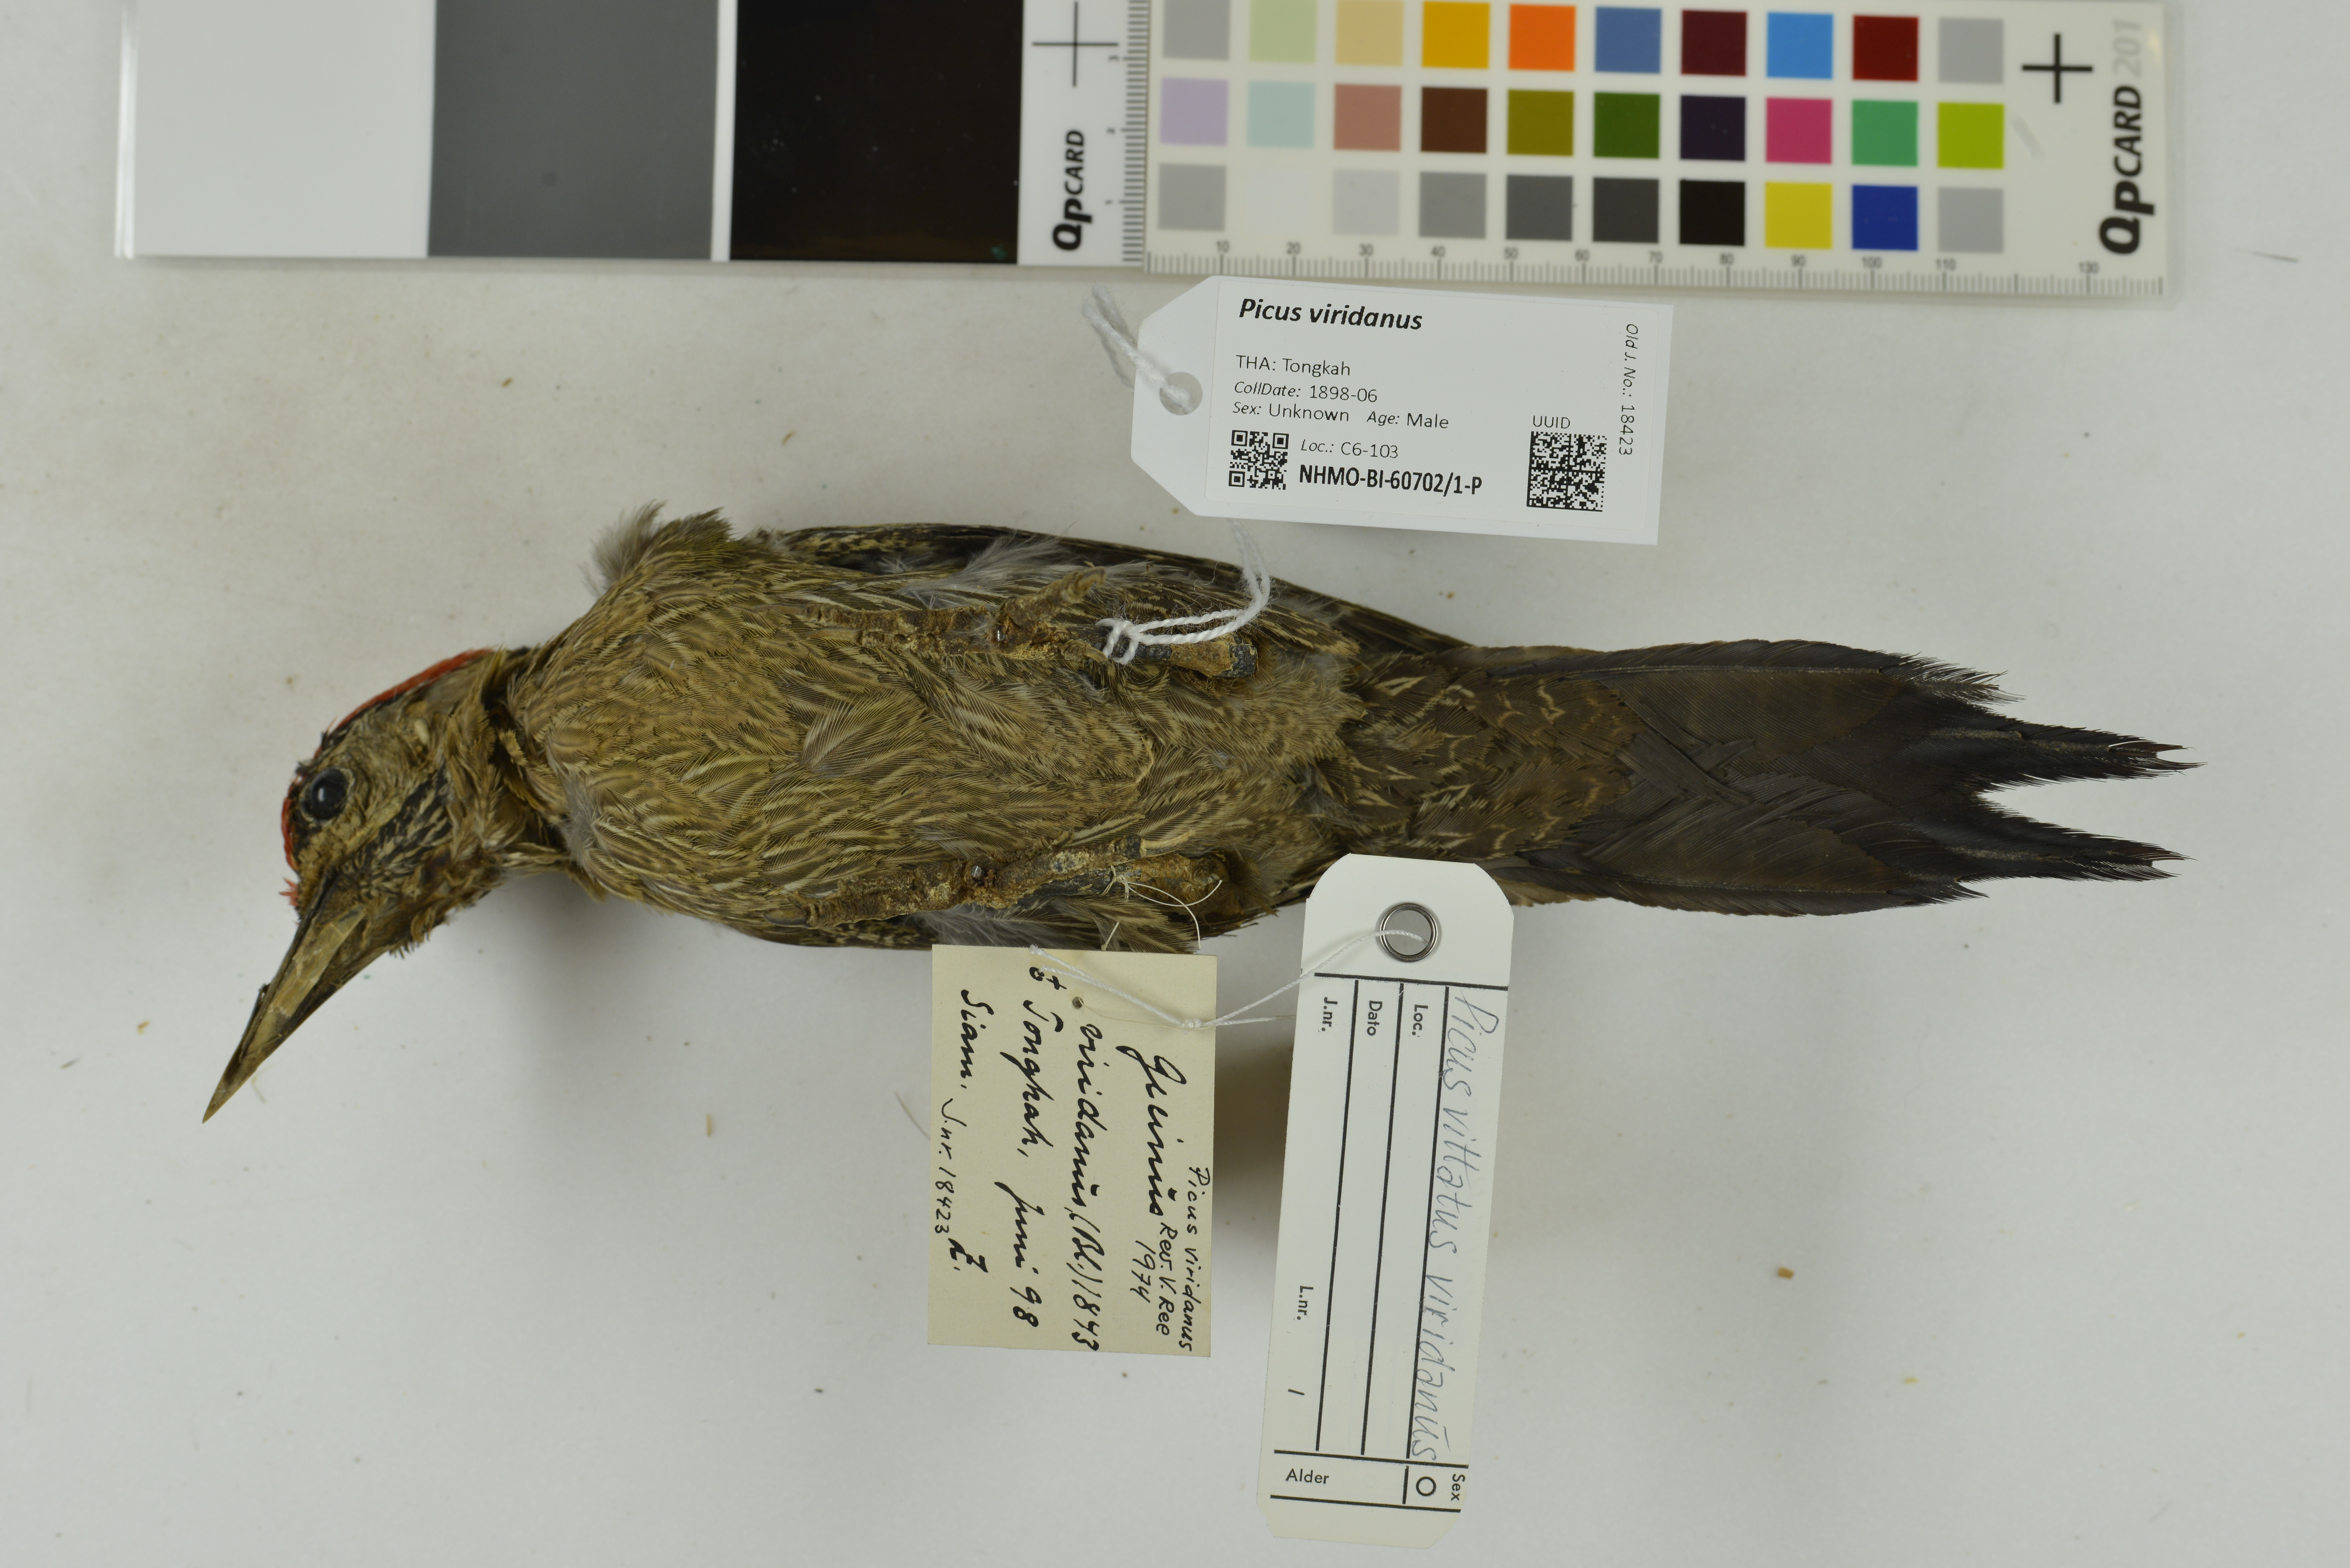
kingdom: Animalia
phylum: Chordata
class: Aves
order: Piciformes
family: Picidae
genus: Picus
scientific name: Picus viridanus
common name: Streak-breasted woodpecker
